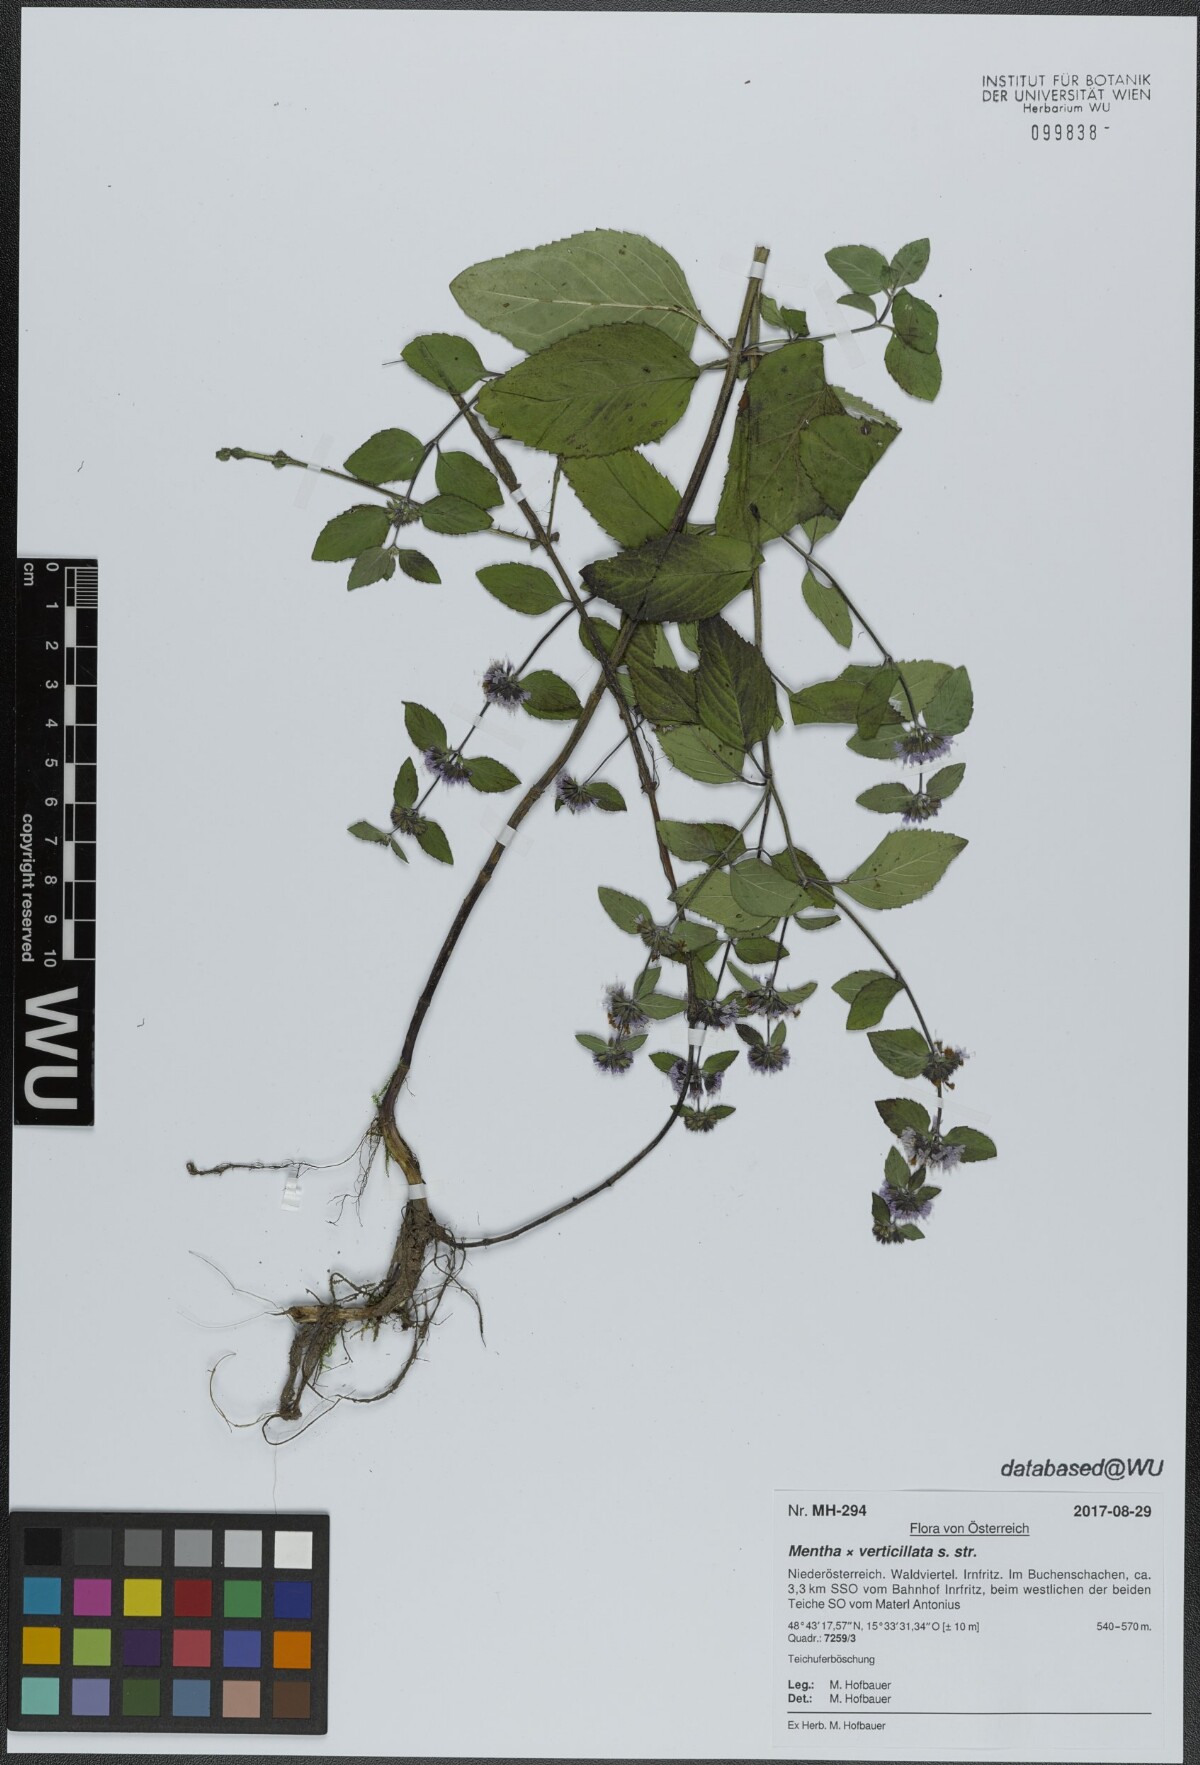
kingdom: Plantae
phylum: Tracheophyta
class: Magnoliopsida
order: Lamiales
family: Lamiaceae
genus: Mentha
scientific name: Mentha verticillata
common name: Mint
